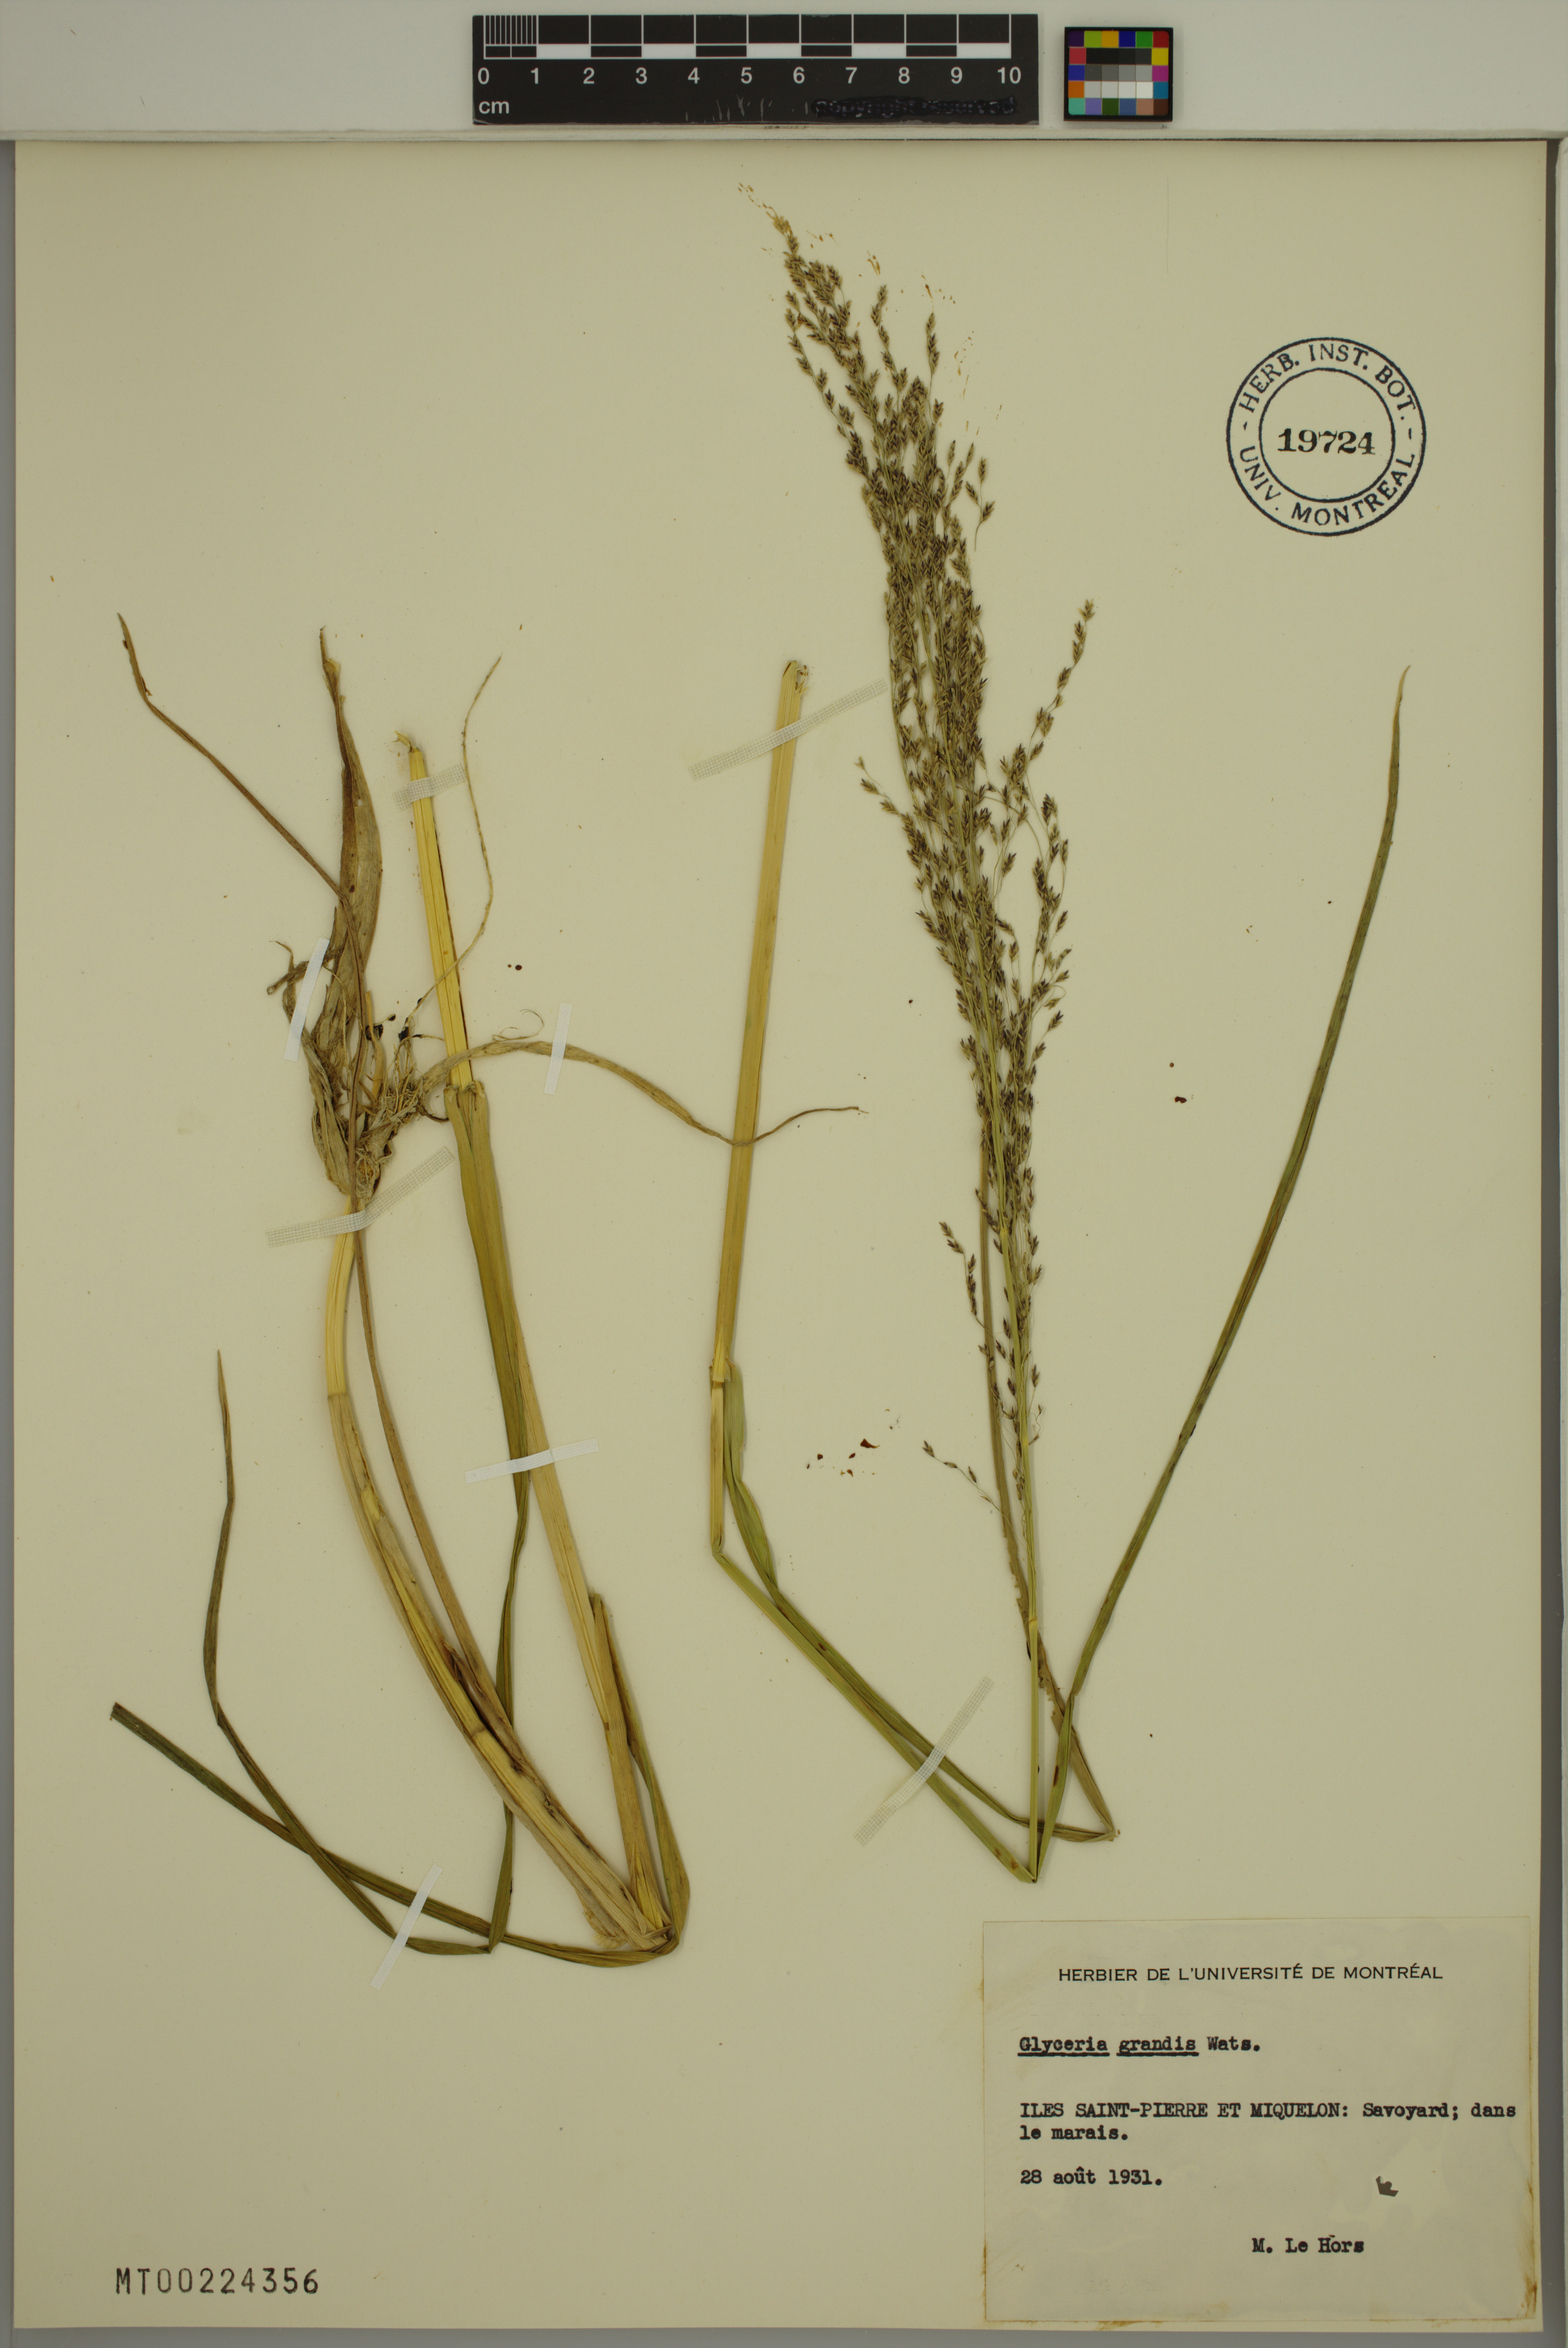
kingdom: Plantae
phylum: Tracheophyta
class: Liliopsida
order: Poales
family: Poaceae
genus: Glyceria
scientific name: Glyceria grandis
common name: American glyceria
